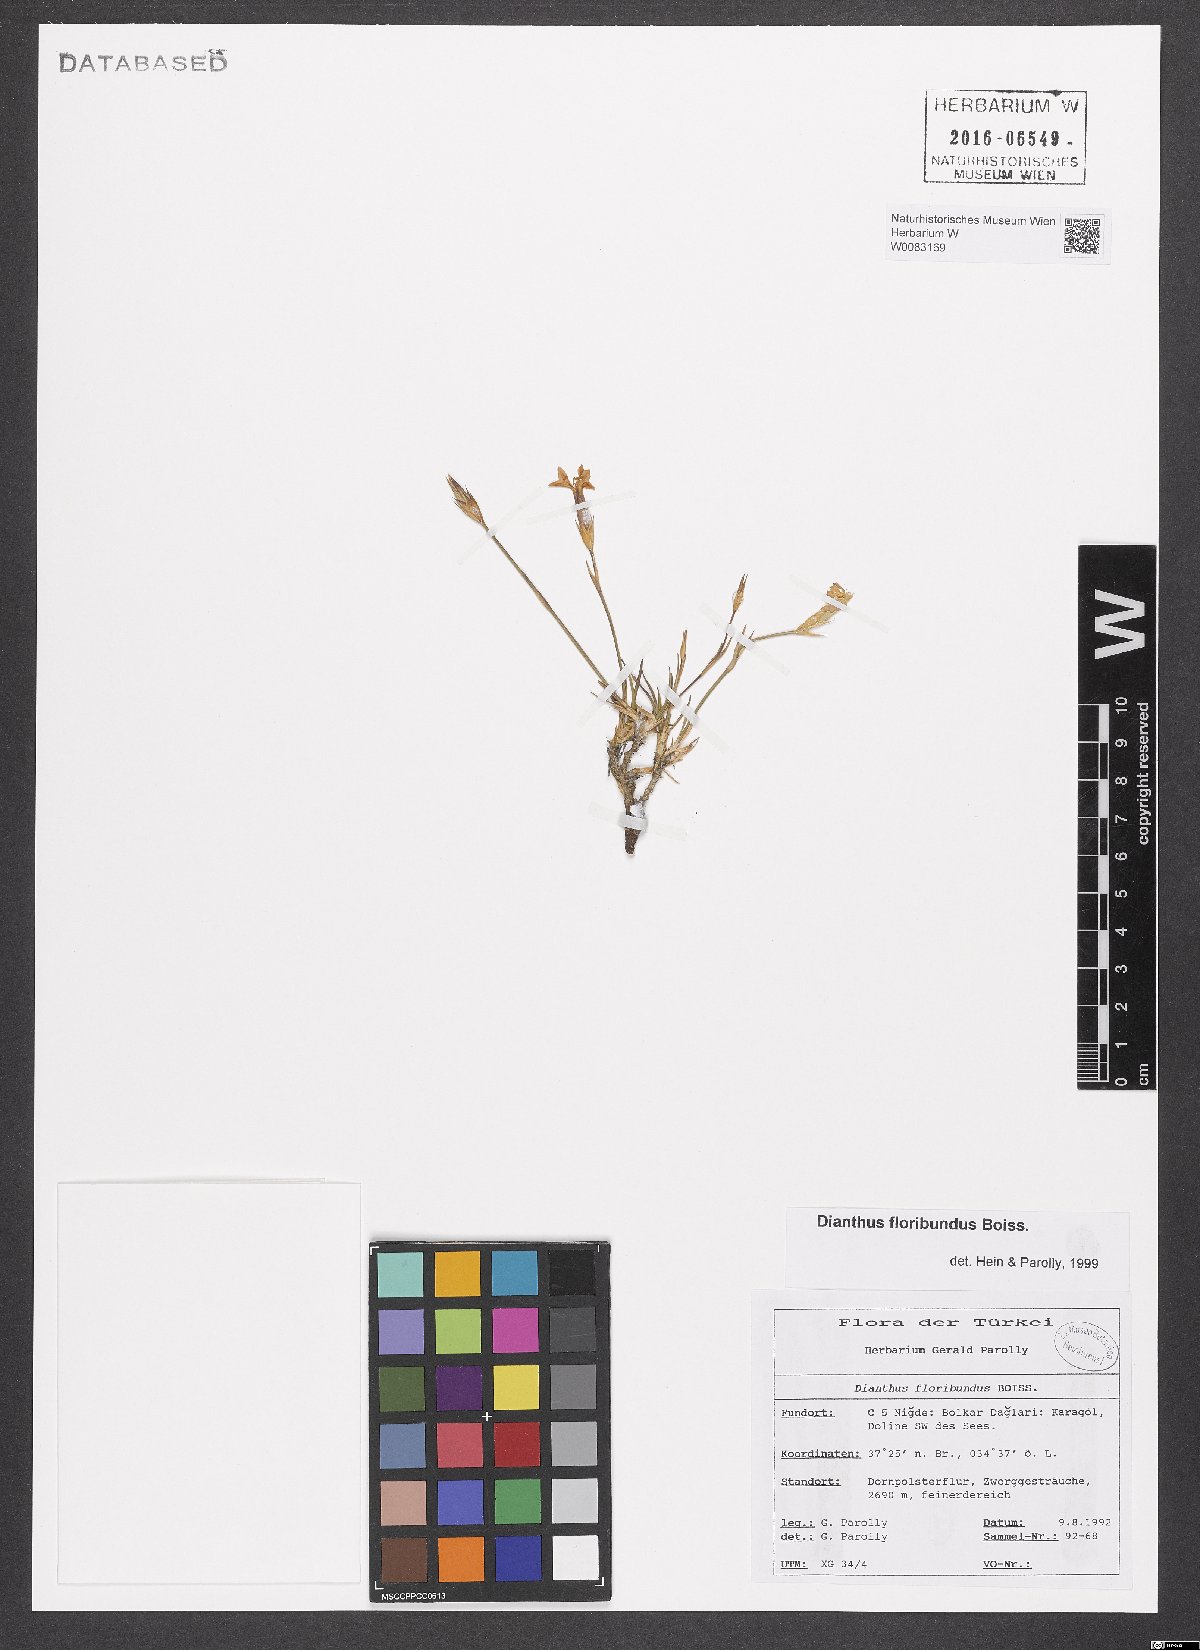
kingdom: Plantae
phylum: Tracheophyta
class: Magnoliopsida
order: Caryophyllales
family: Caryophyllaceae
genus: Dianthus
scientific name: Dianthus floribundus
